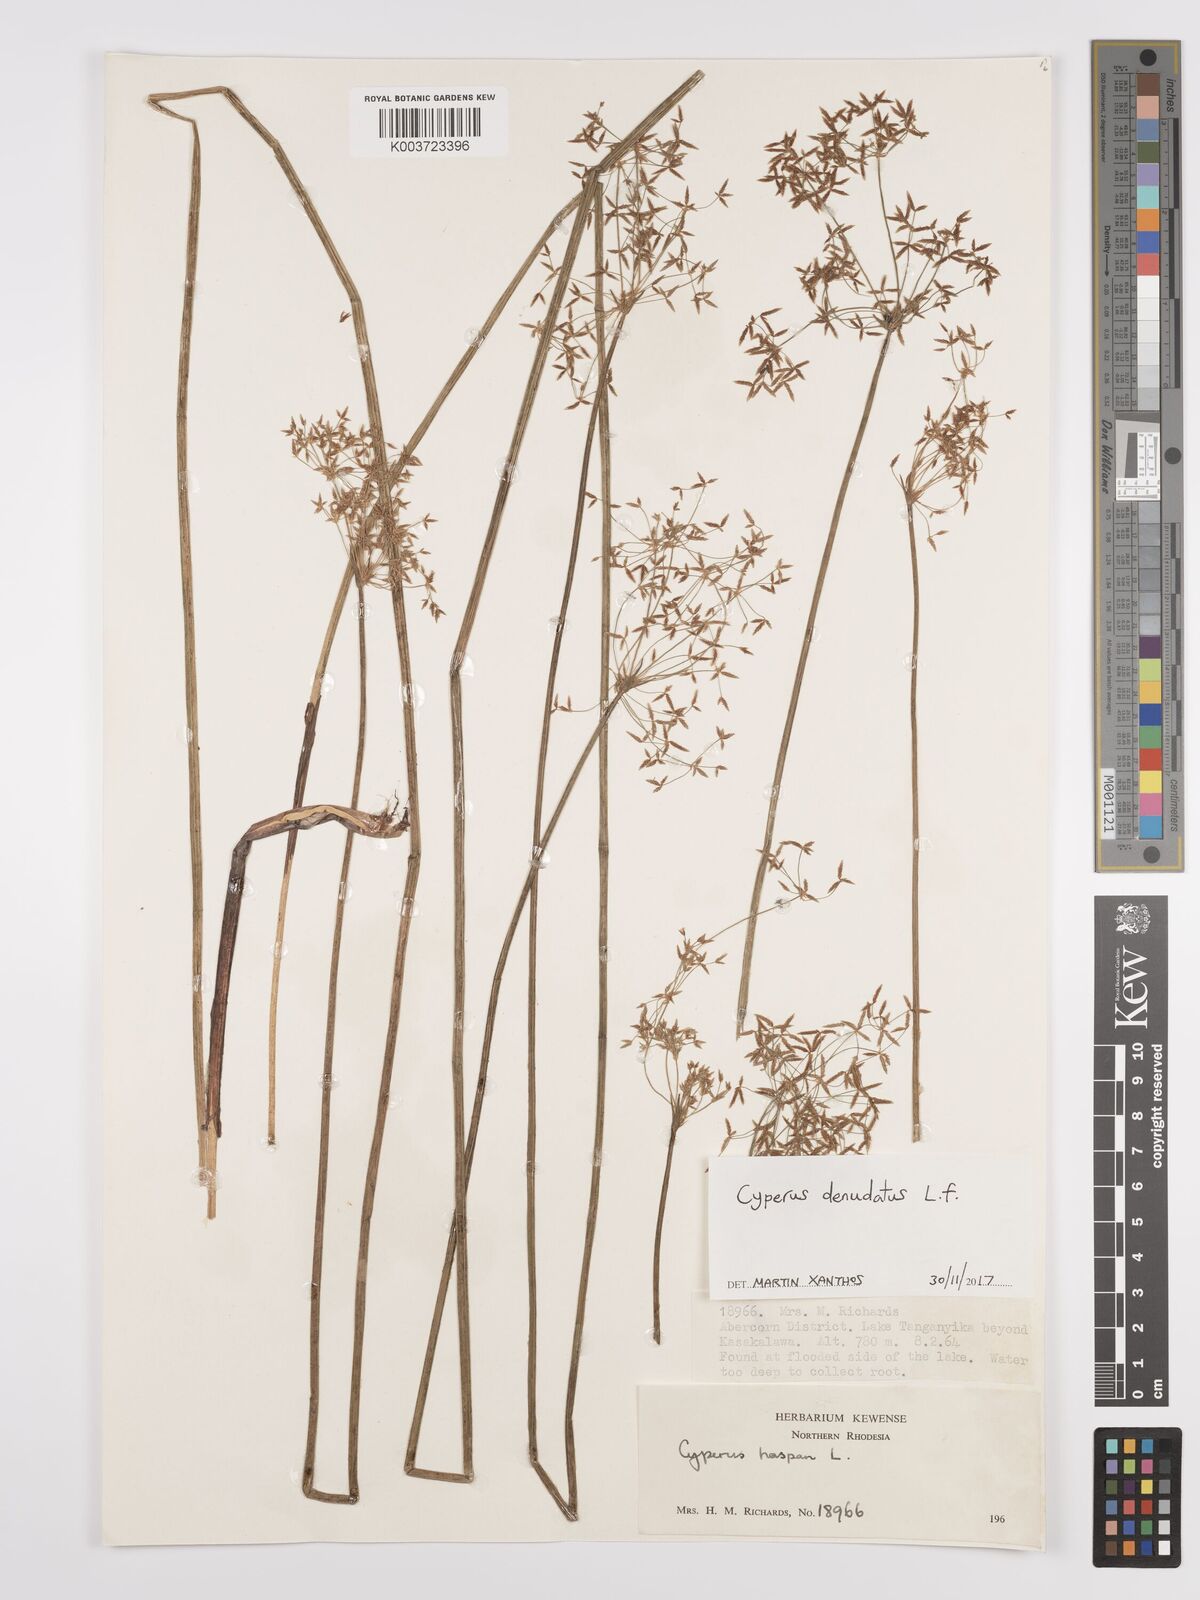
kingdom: Plantae
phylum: Tracheophyta
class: Liliopsida
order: Poales
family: Cyperaceae
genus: Cyperus
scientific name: Cyperus denudatus
